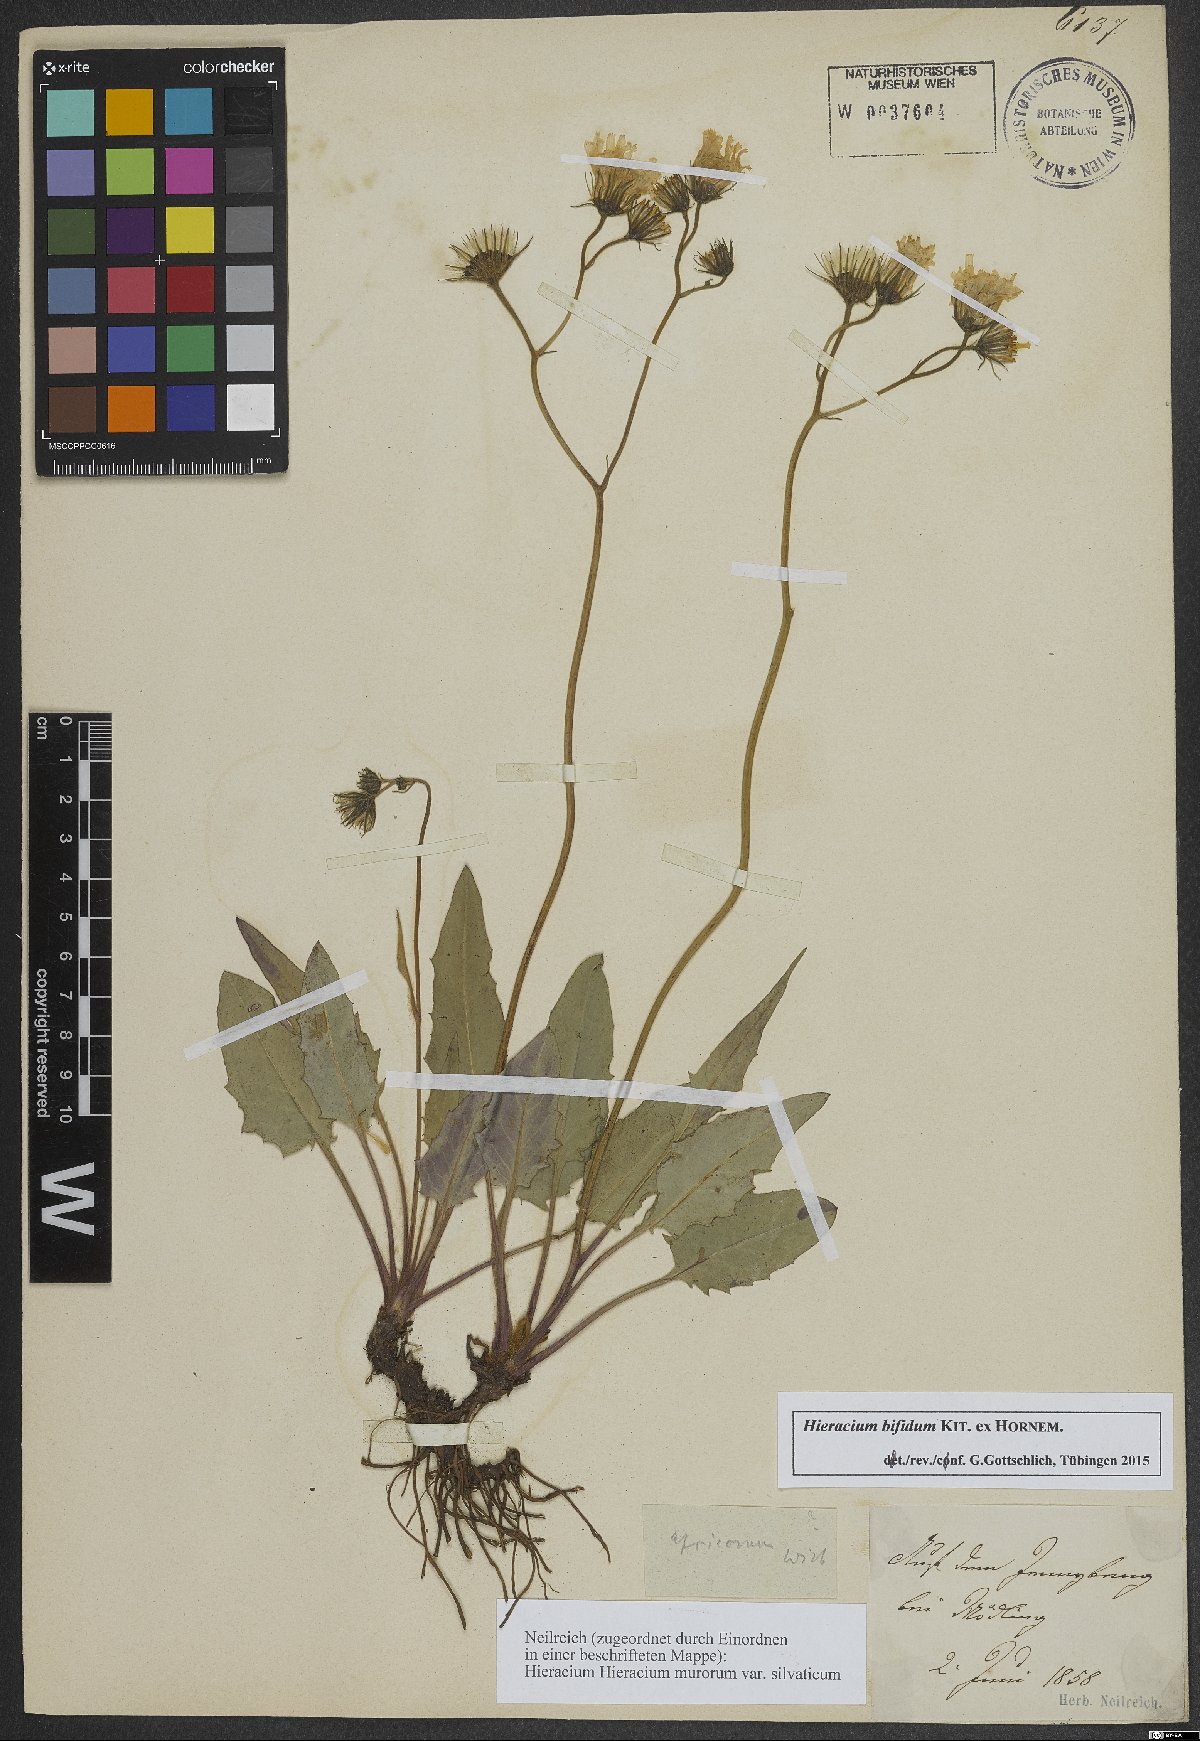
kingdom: Plantae
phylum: Tracheophyta
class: Magnoliopsida
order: Asterales
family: Asteraceae
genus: Hieracium
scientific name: Hieracium bifidum
